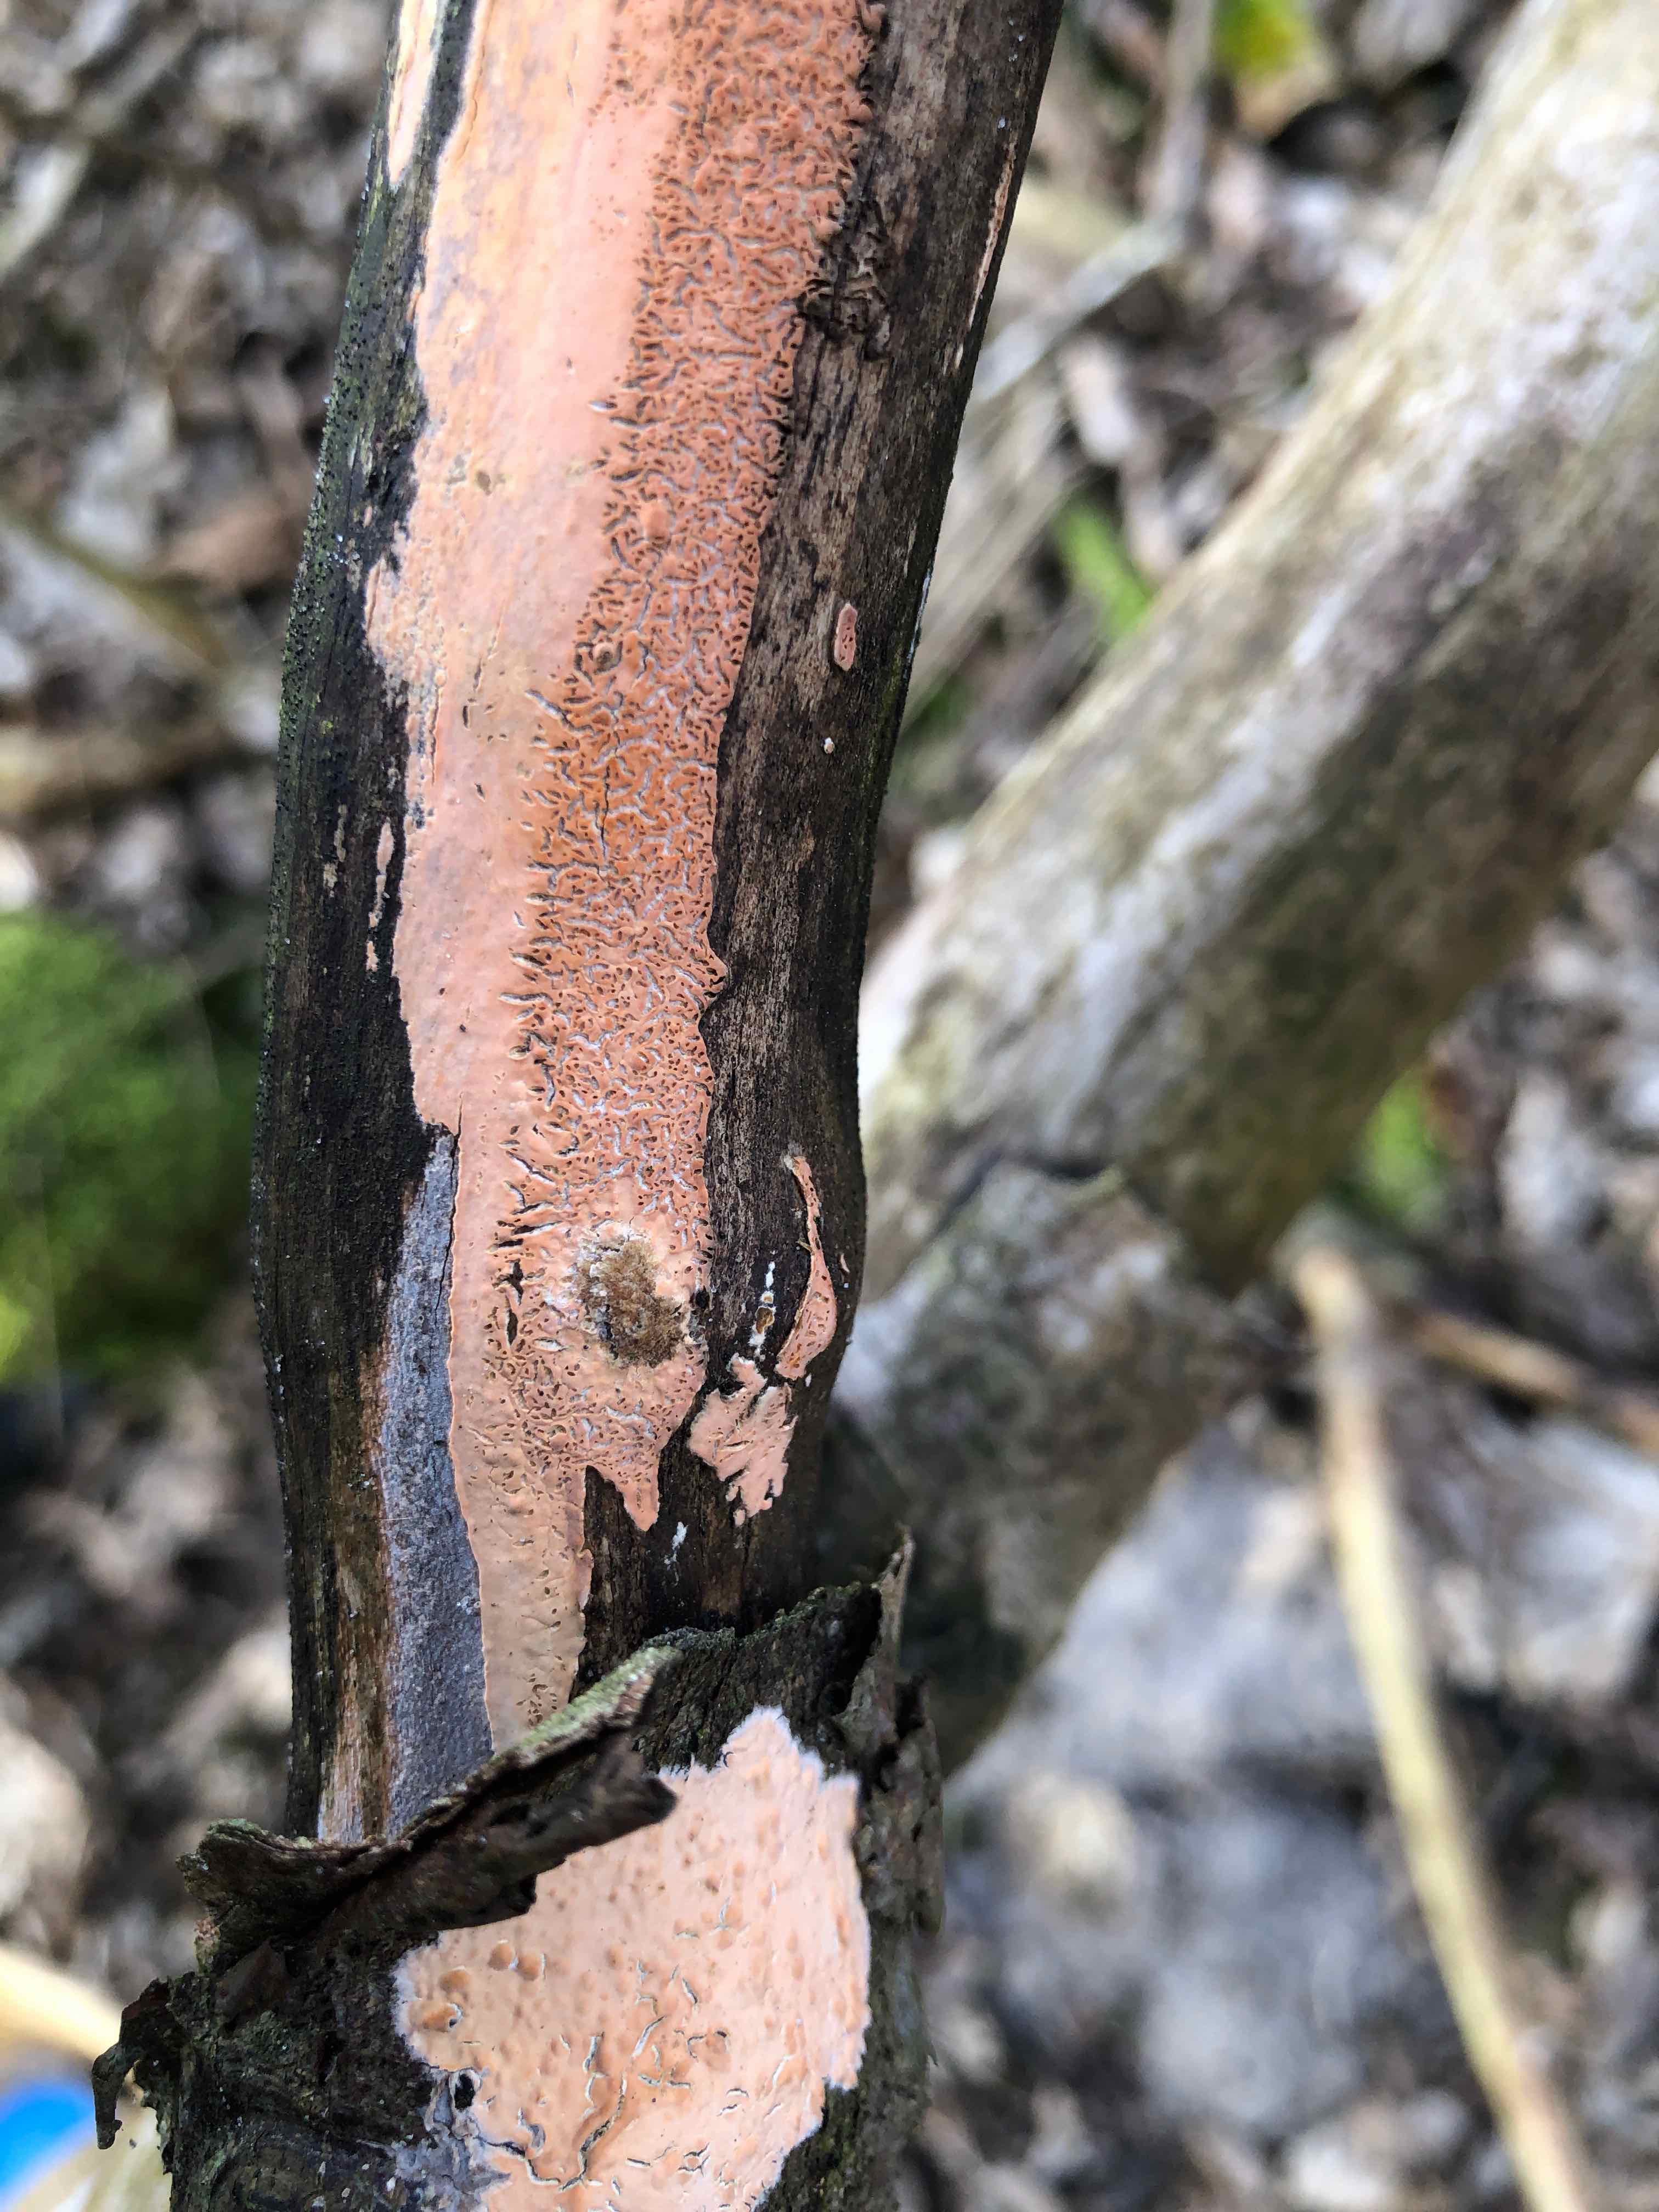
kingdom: Fungi
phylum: Basidiomycota
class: Agaricomycetes
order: Russulales
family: Peniophoraceae
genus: Peniophora
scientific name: Peniophora incarnata
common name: laksefarvet voksskind
